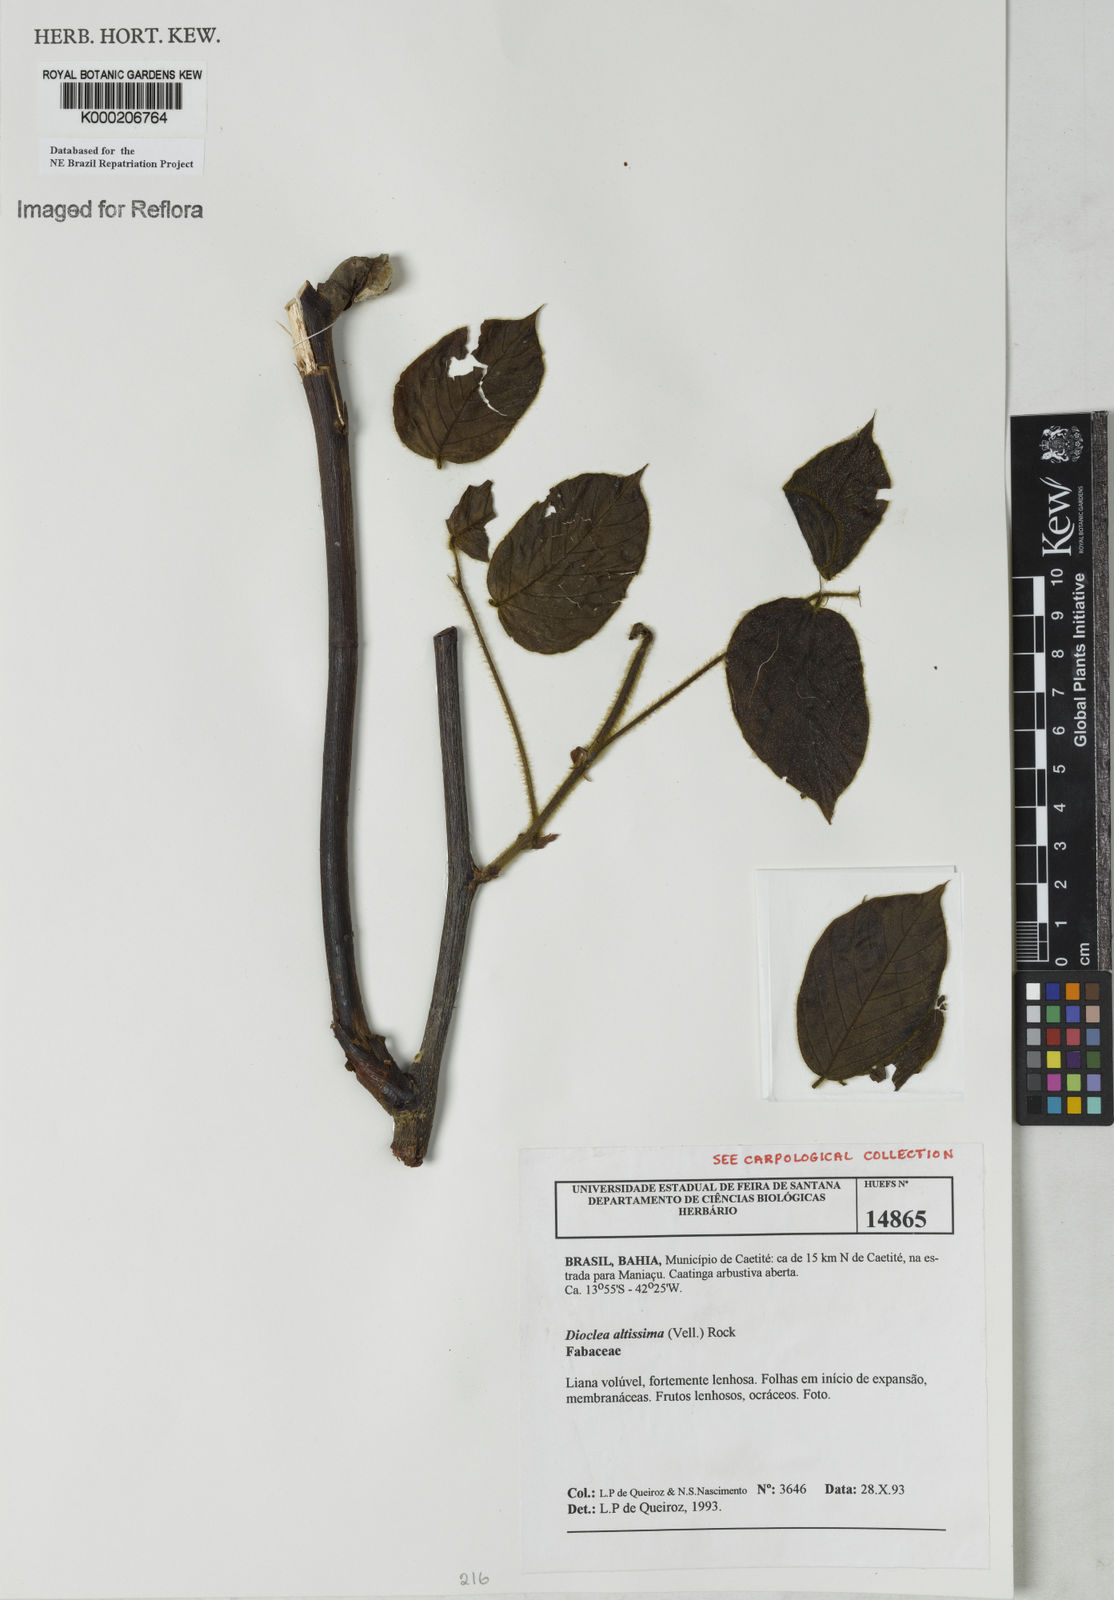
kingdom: Plantae
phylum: Tracheophyta
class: Magnoliopsida
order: Fabales
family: Fabaceae
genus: Macropsychanthus
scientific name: Macropsychanthus violaceus
